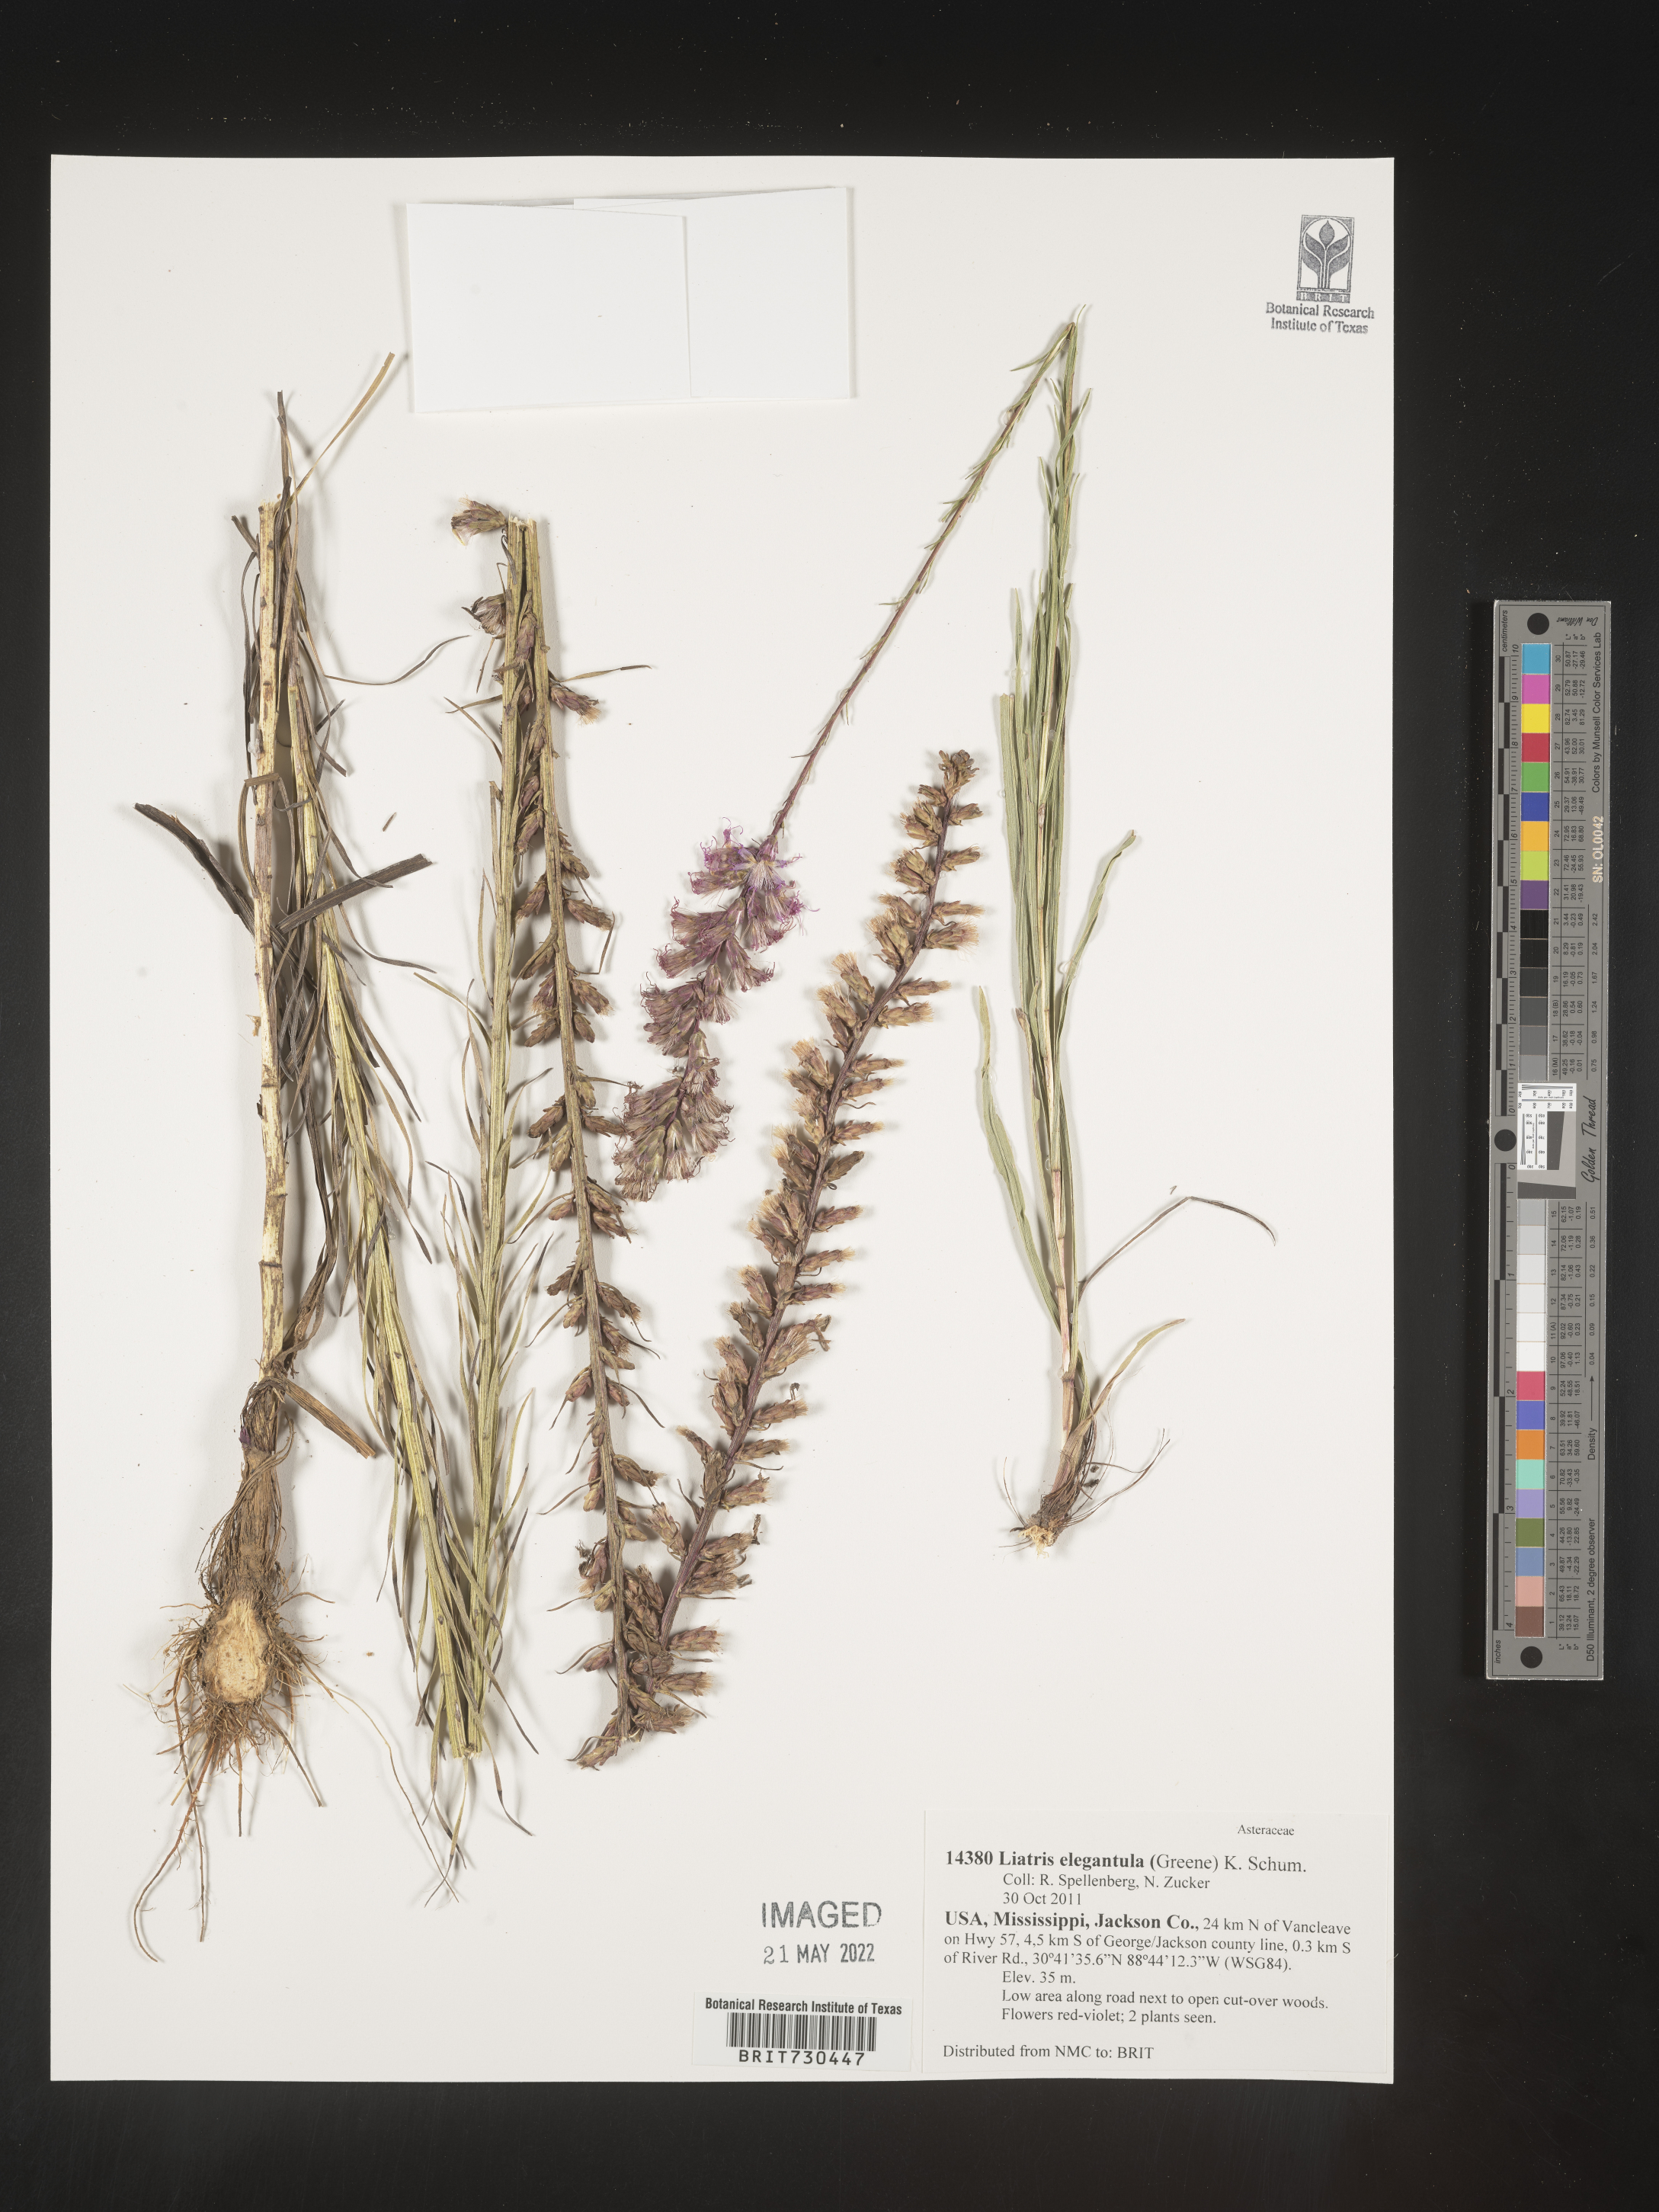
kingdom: Plantae
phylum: Tracheophyta
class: Magnoliopsida
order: Asterales
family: Asteraceae
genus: Liatris
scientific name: Liatris elegantula
